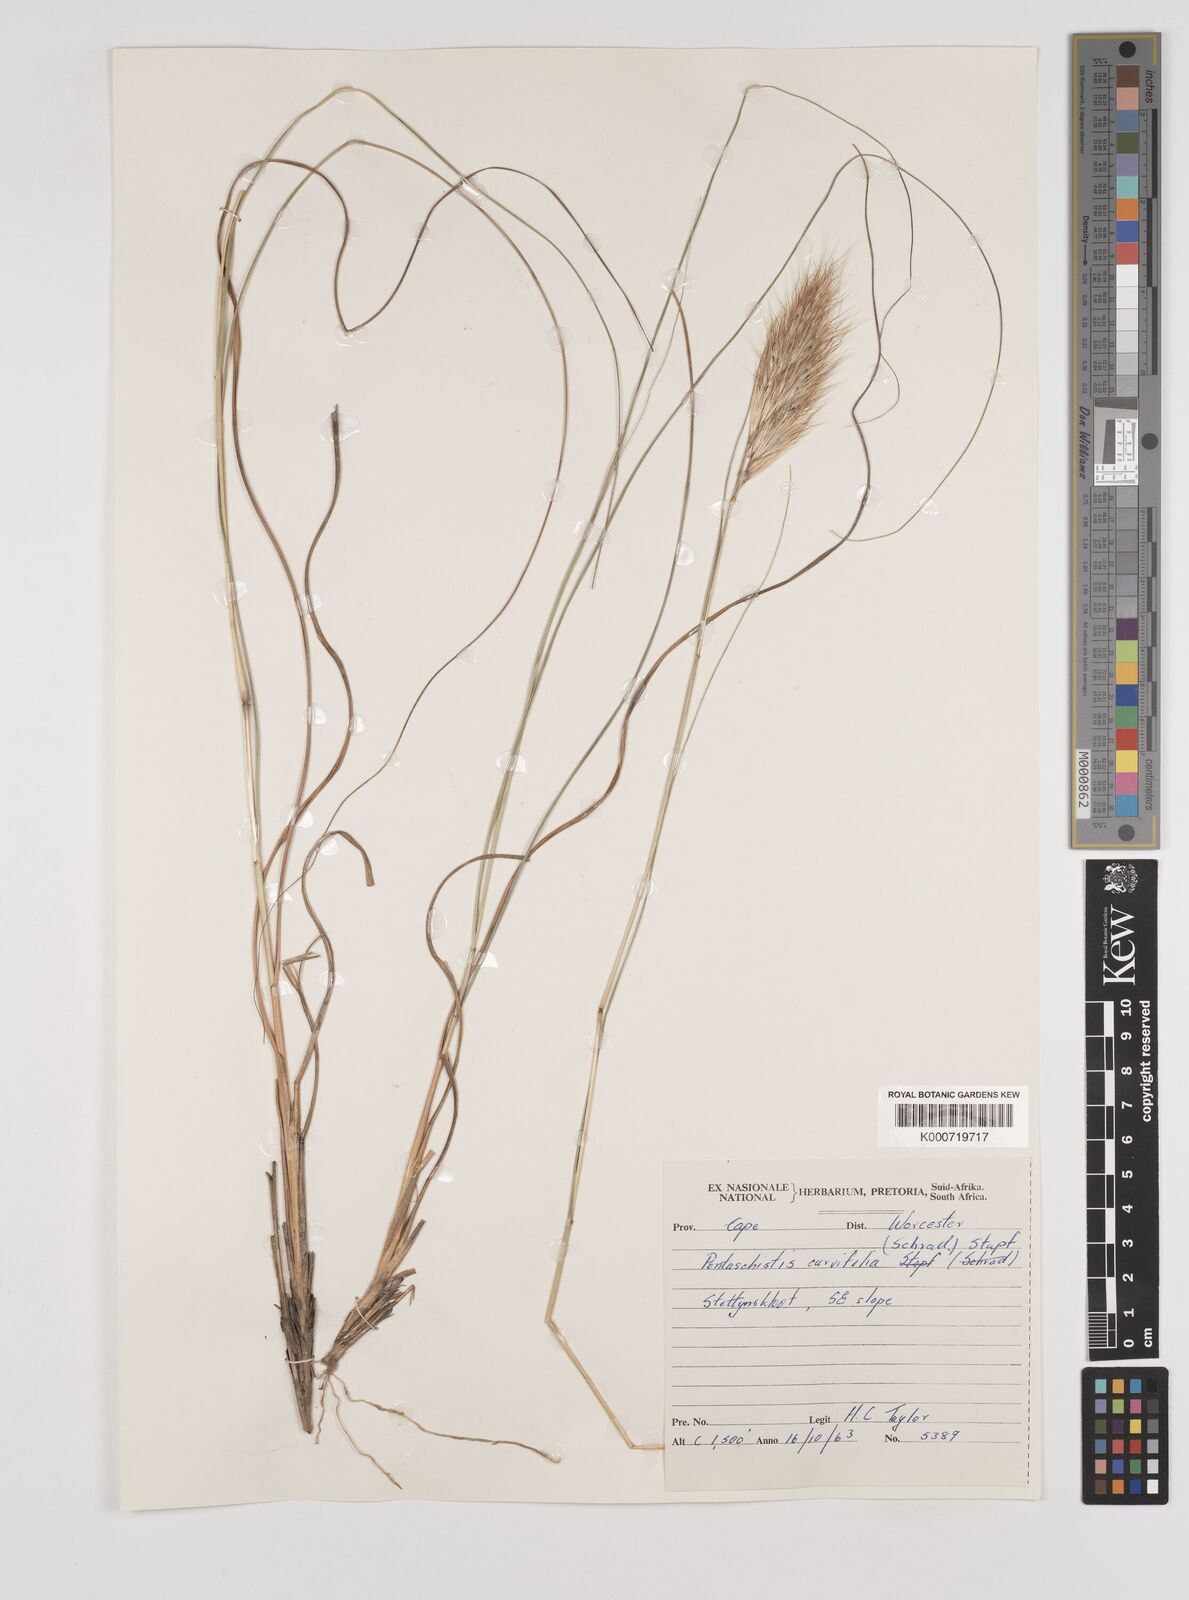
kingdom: Plantae
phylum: Tracheophyta
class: Liliopsida
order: Poales
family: Poaceae
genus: Pentameris
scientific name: Pentameris curvifolia
